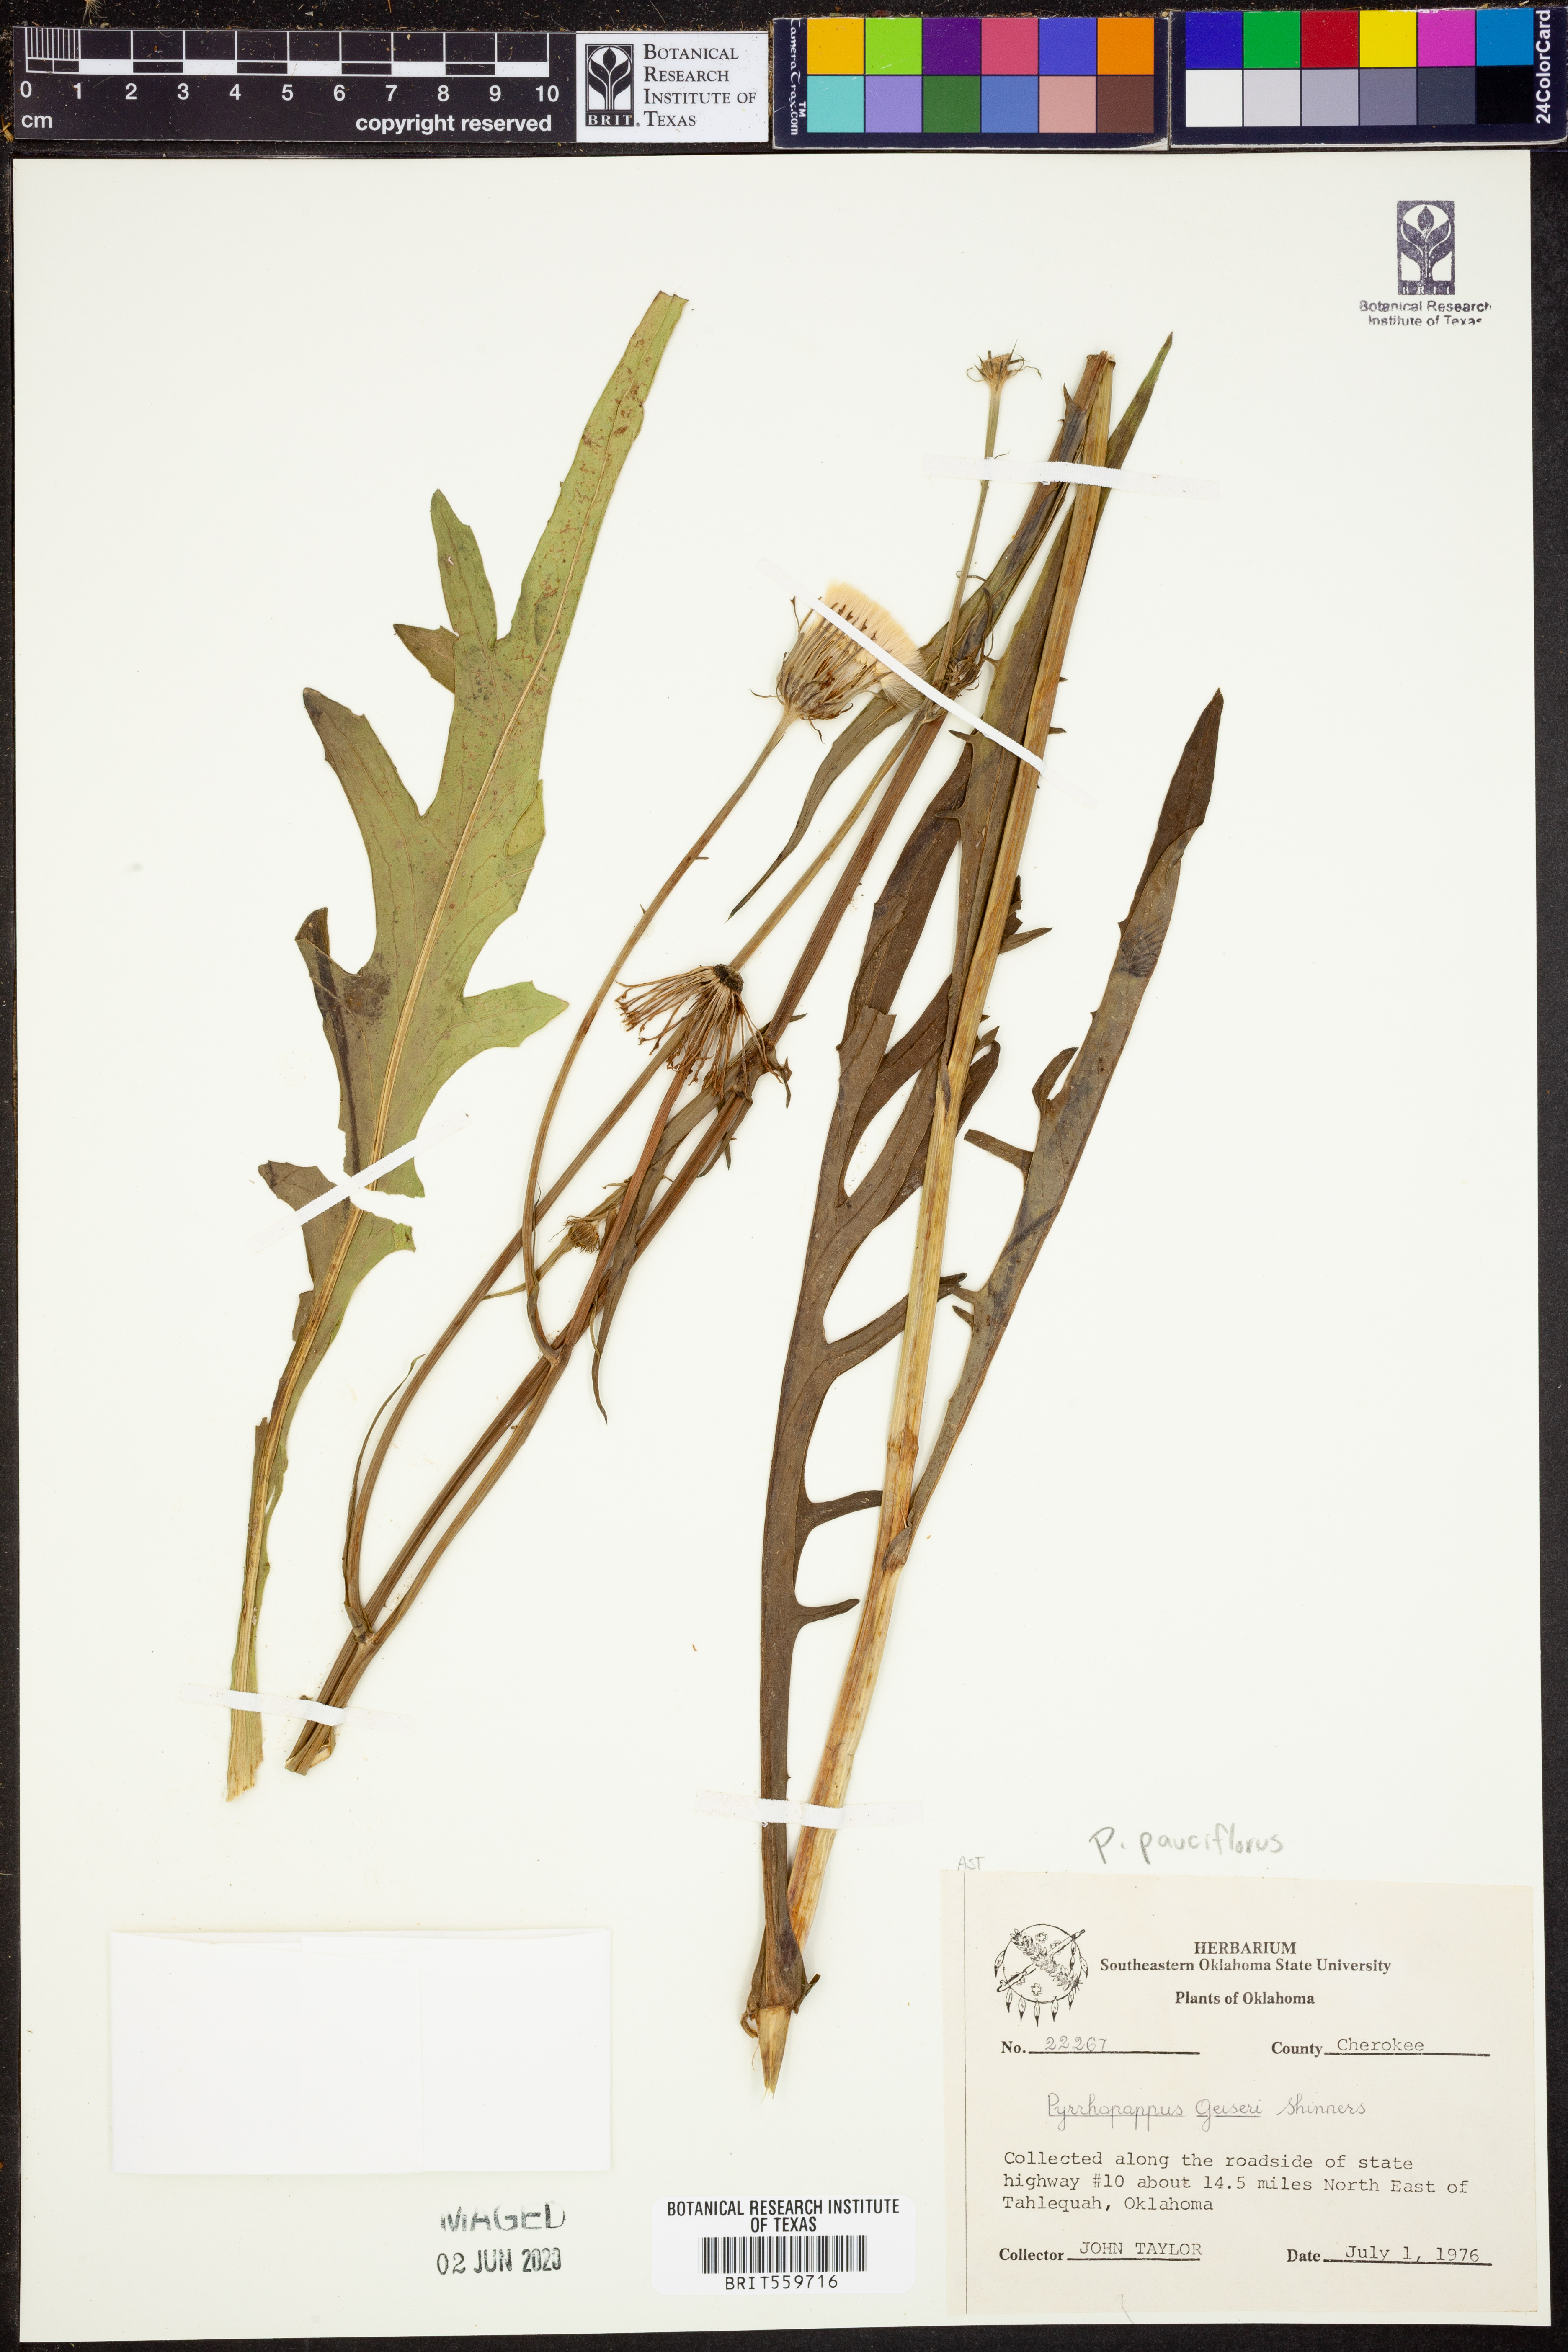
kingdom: Plantae
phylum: Tracheophyta
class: Magnoliopsida
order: Asterales
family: Asteraceae
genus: Pyrrhopappus
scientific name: Pyrrhopappus pauciflorus
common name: Texas false dandelion
